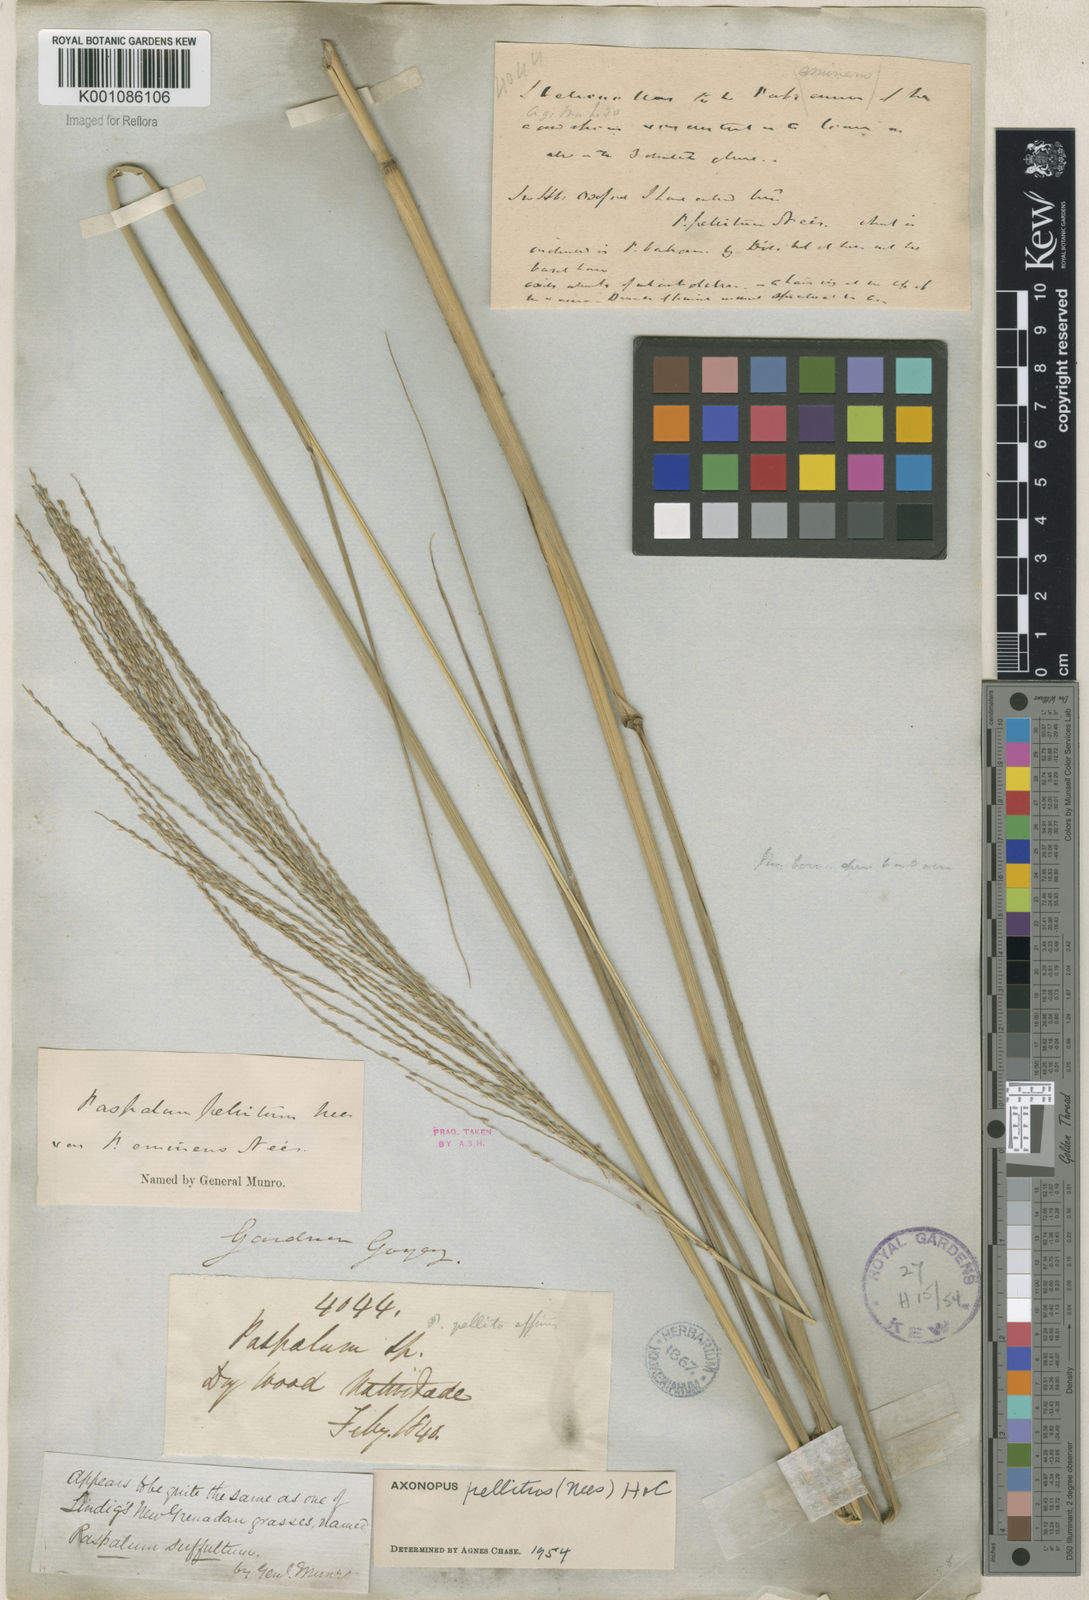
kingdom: Plantae
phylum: Tracheophyta
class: Liliopsida
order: Poales
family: Poaceae
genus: Axonopus
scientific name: Axonopus siccus
